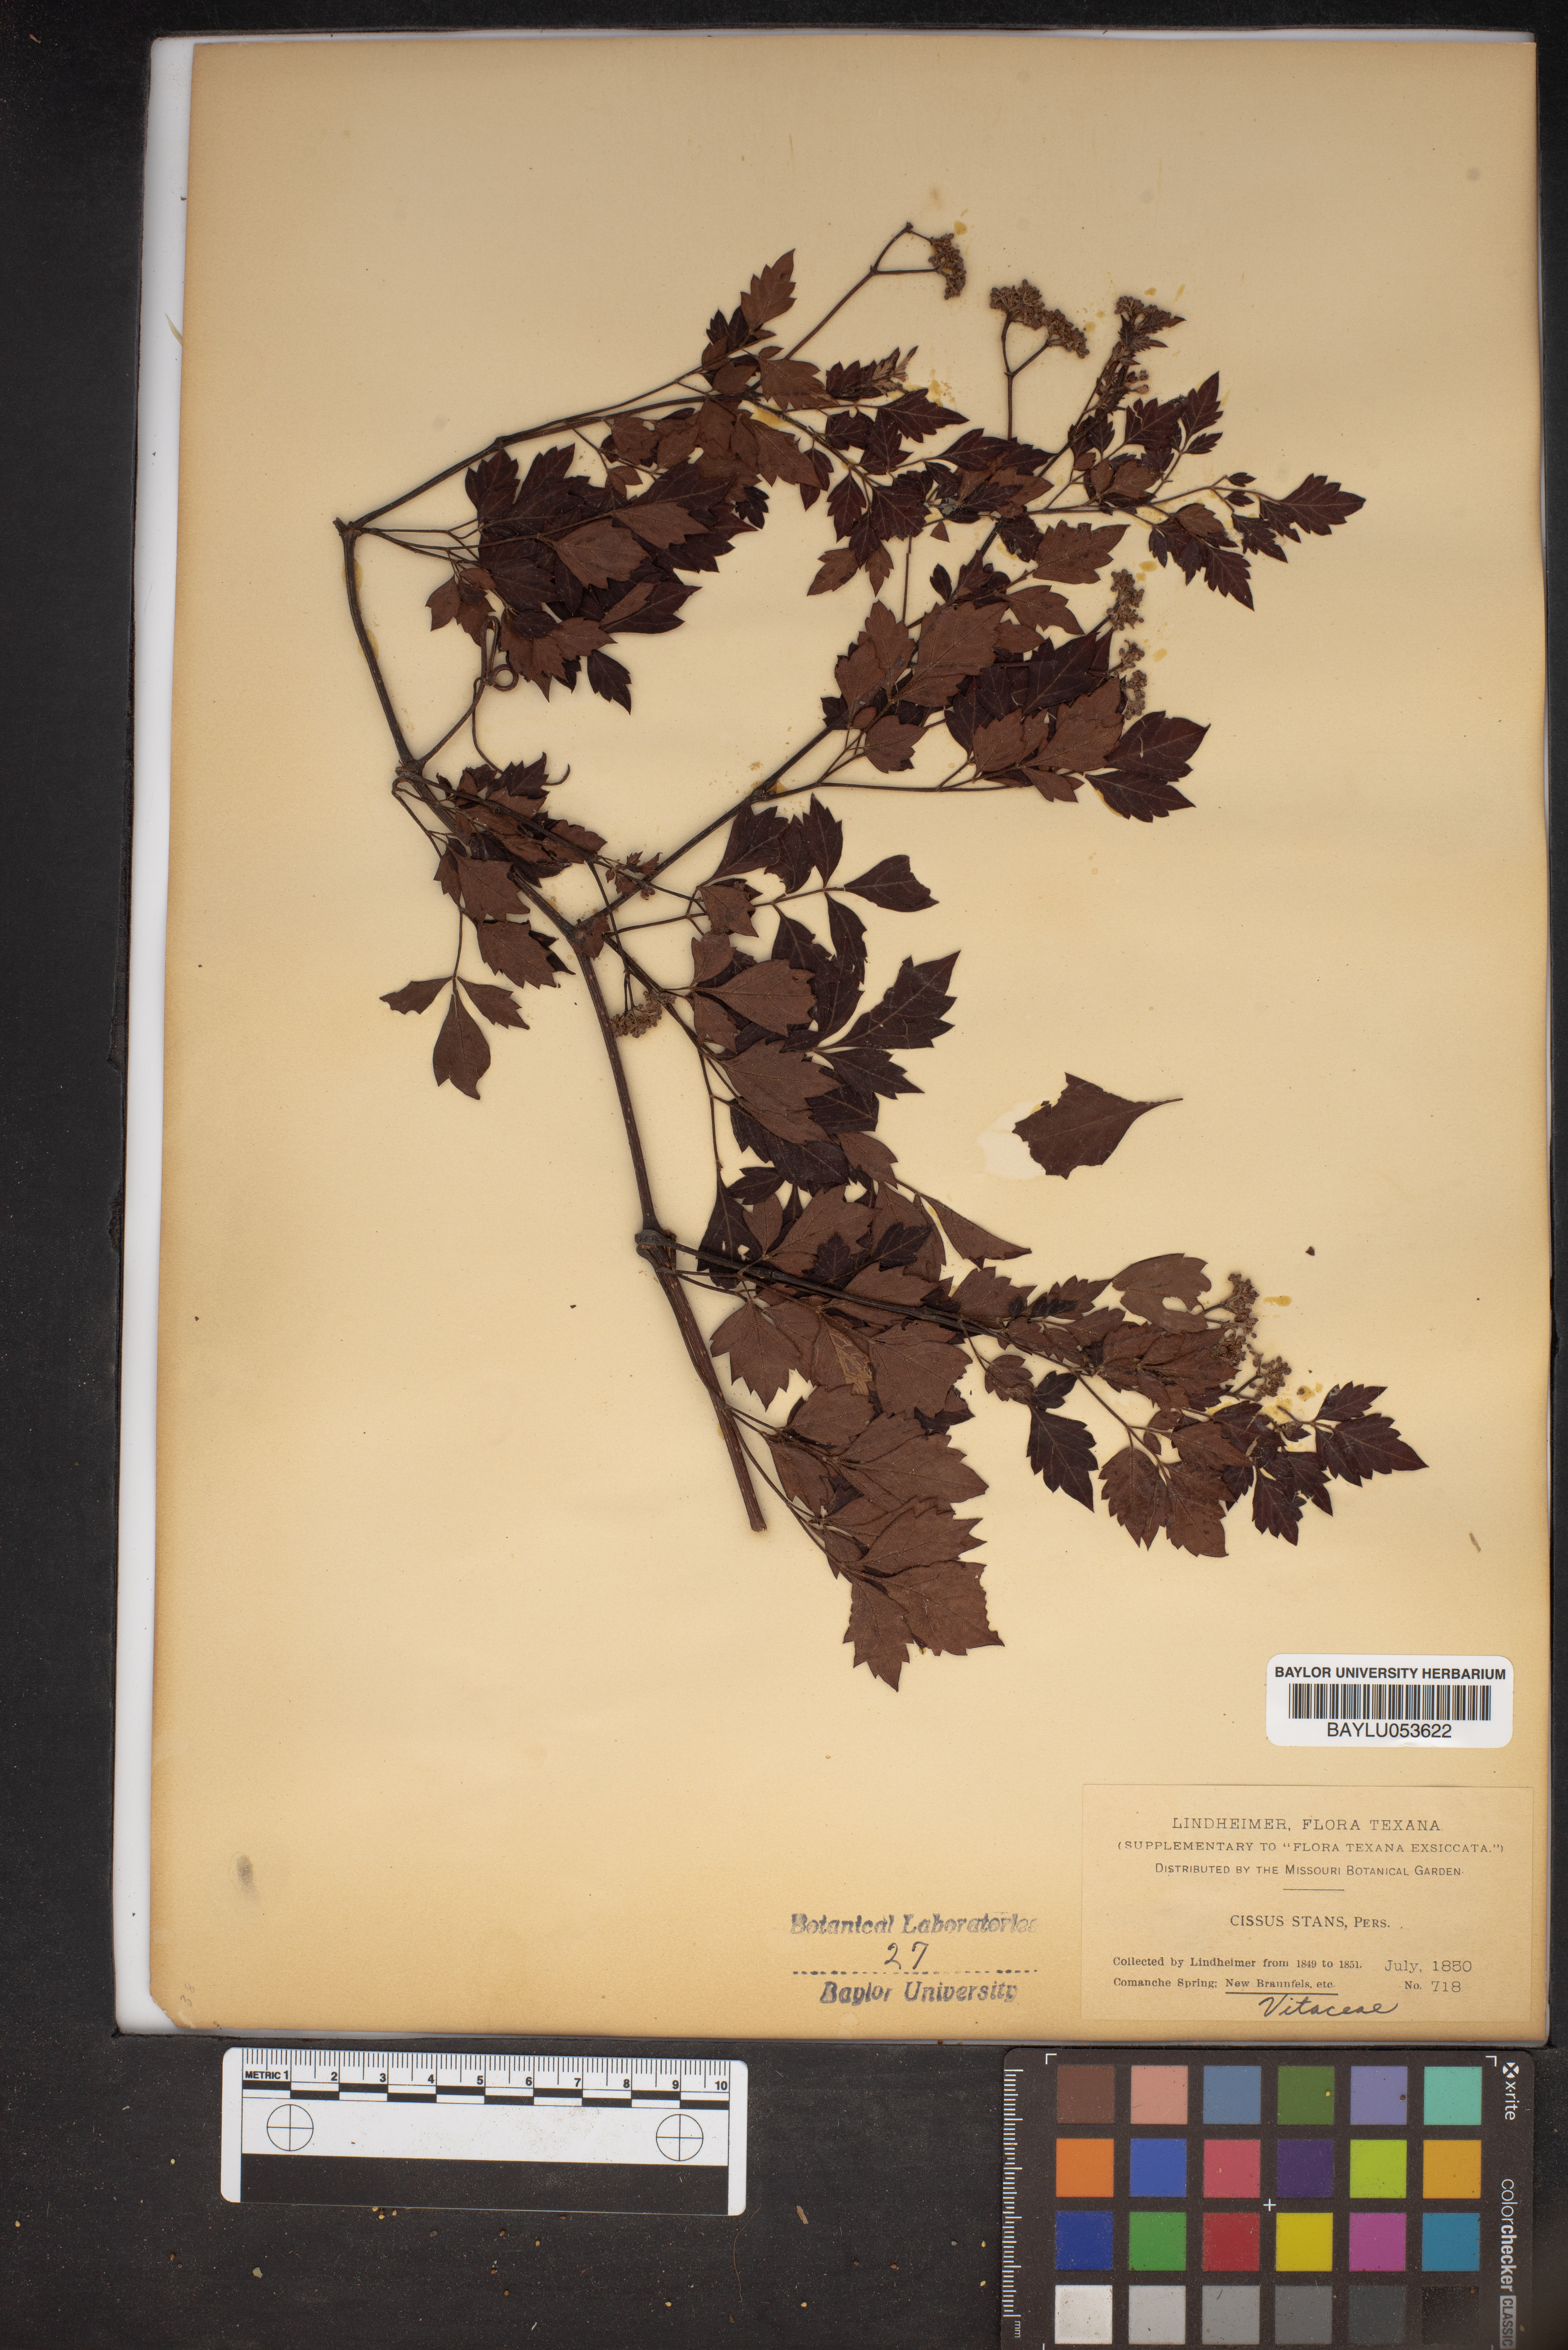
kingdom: Plantae
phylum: Tracheophyta
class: Magnoliopsida
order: Vitales
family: Vitaceae
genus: Nekemias
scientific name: Nekemias arborea
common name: Peppervine
